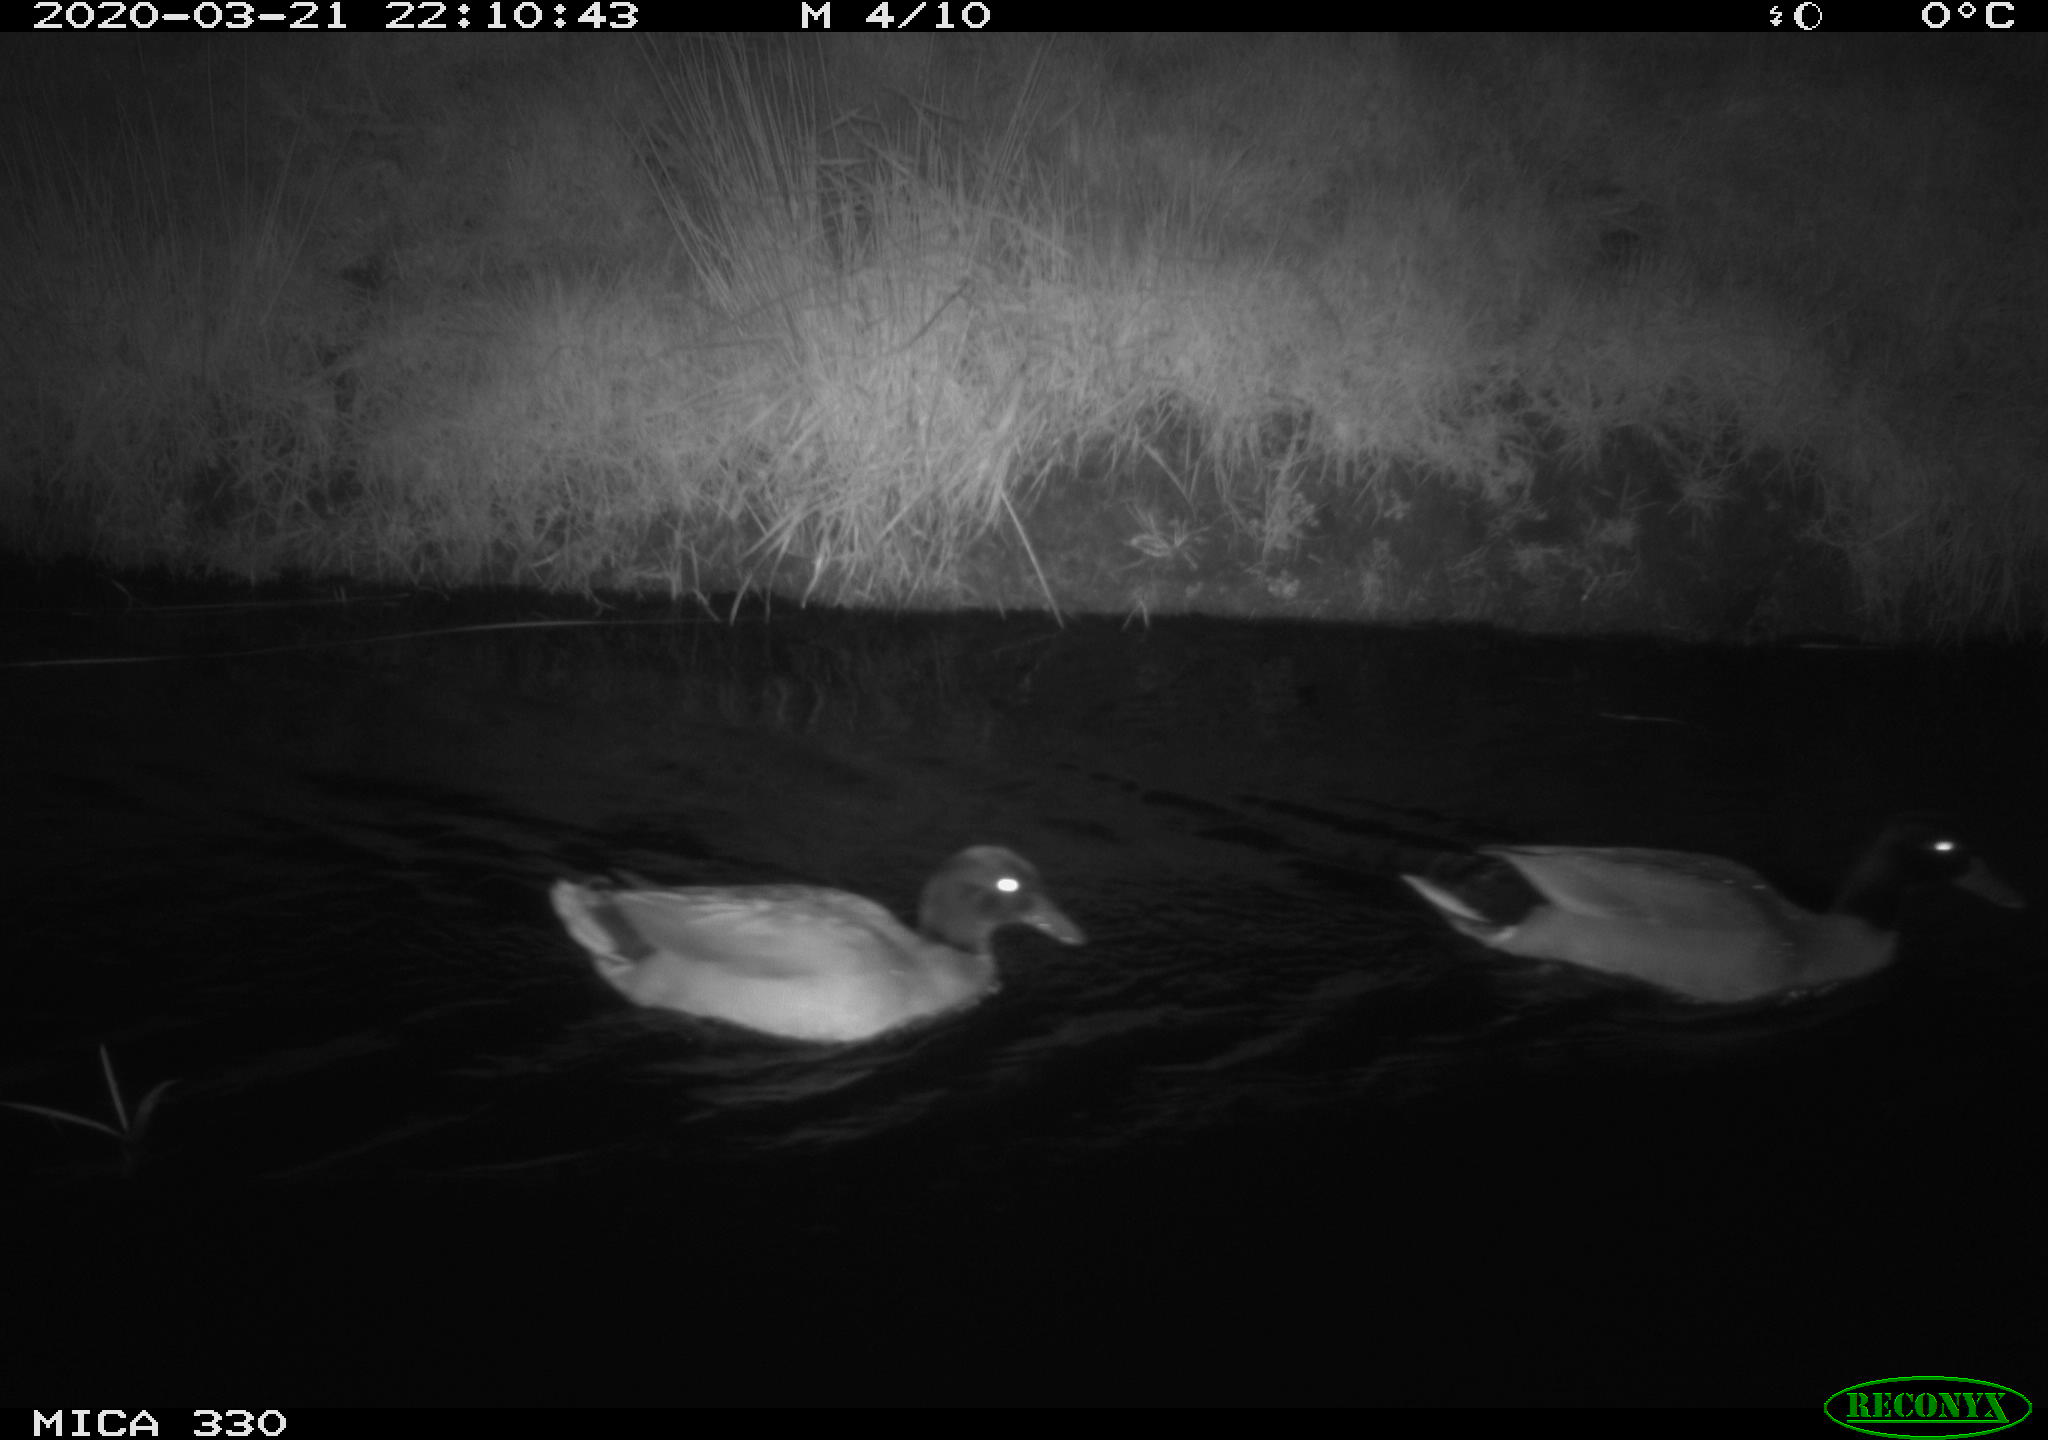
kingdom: Animalia
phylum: Chordata
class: Aves
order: Anseriformes
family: Anatidae
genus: Anas
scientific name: Anas platyrhynchos
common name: Mallard
